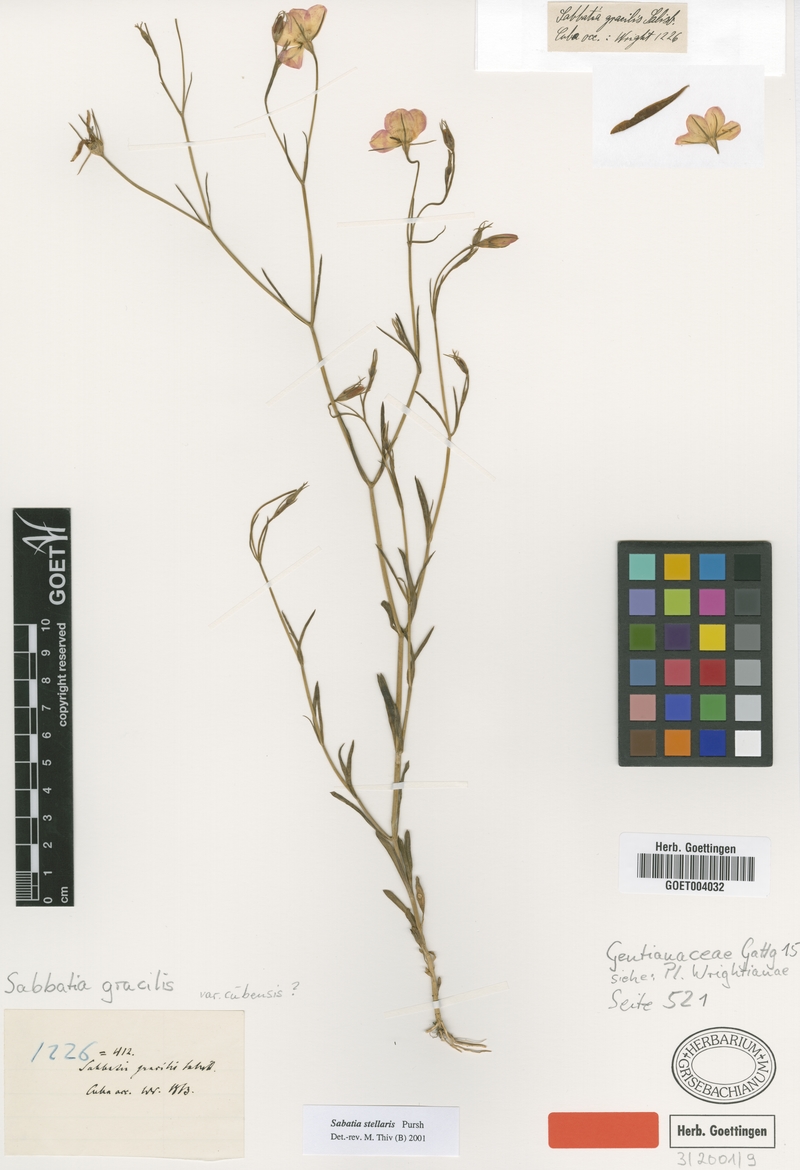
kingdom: Plantae
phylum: Tracheophyta
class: Magnoliopsida
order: Gentianales
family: Gentianaceae
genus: Sabatia
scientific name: Sabatia stellaris
